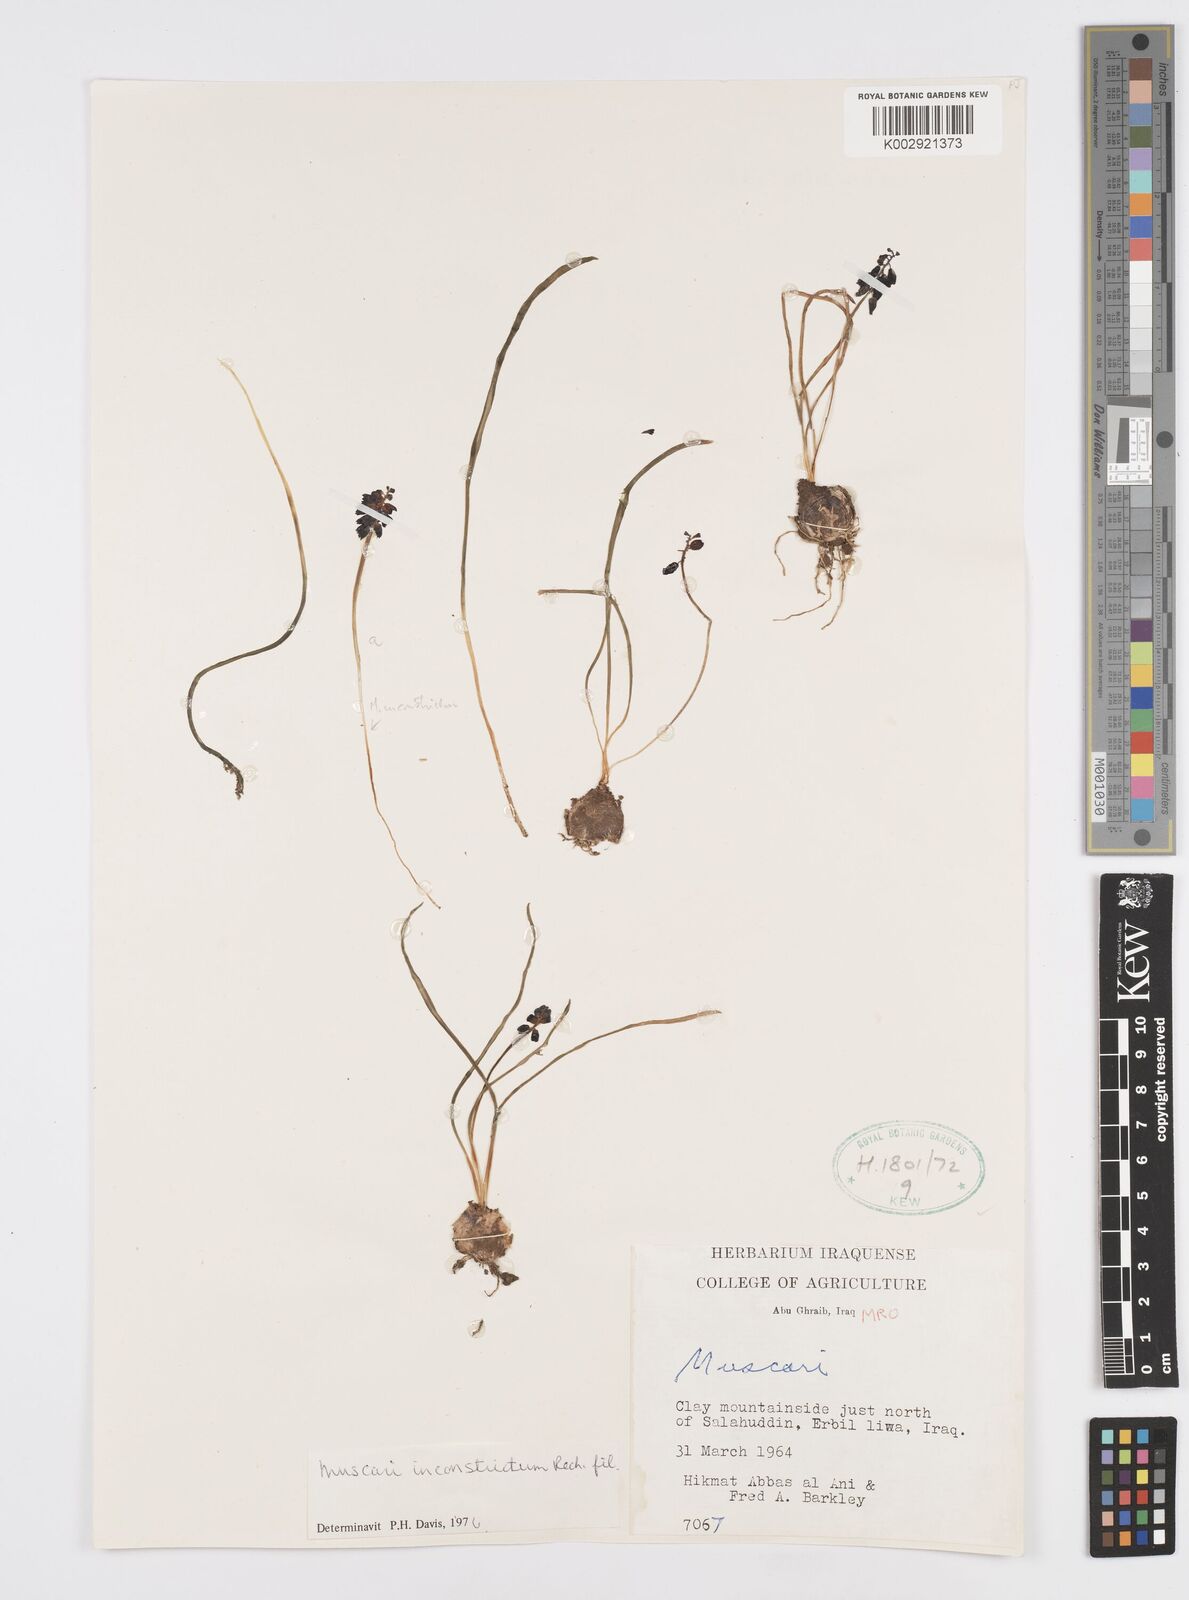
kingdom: Plantae
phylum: Tracheophyta
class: Liliopsida
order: Asparagales
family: Asparagaceae
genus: Muscari
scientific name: Muscari inconstrictum
